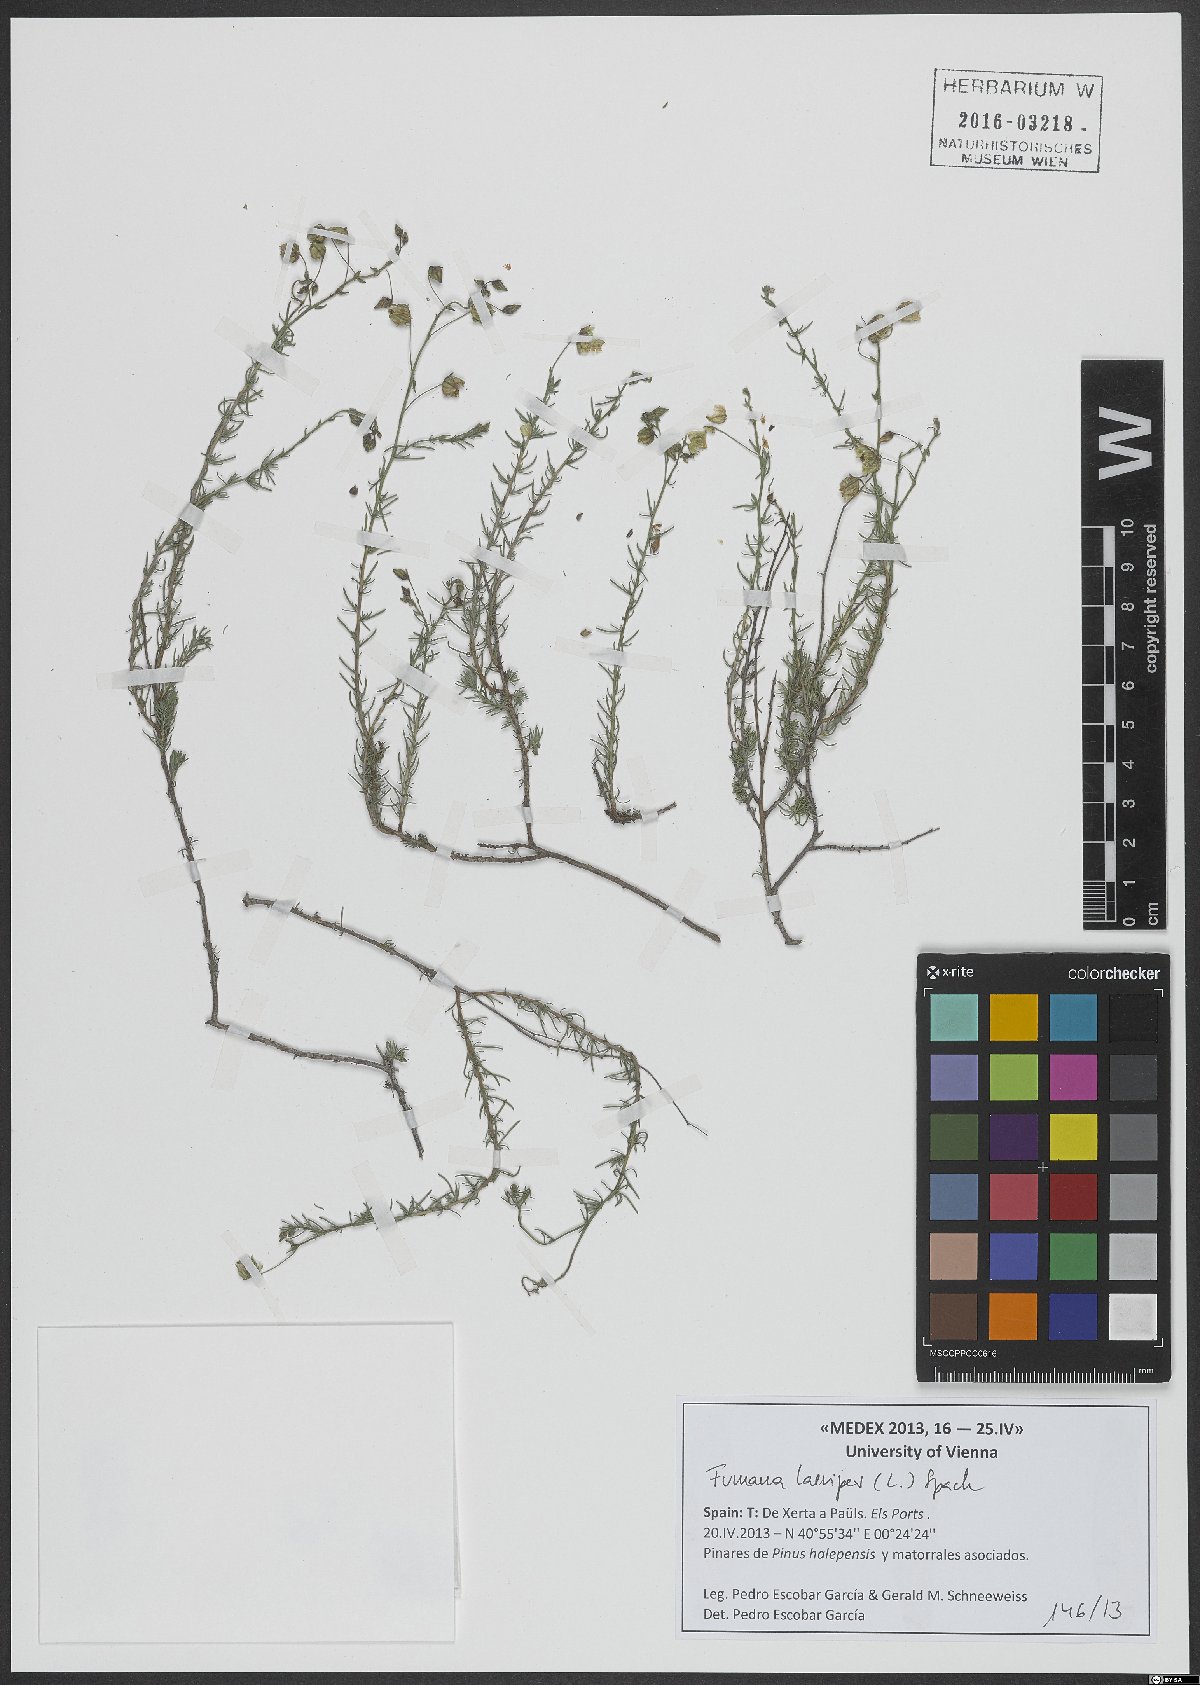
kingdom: Plantae
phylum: Tracheophyta
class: Magnoliopsida
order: Malvales
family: Cistaceae
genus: Fumana
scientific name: Fumana laevipes
